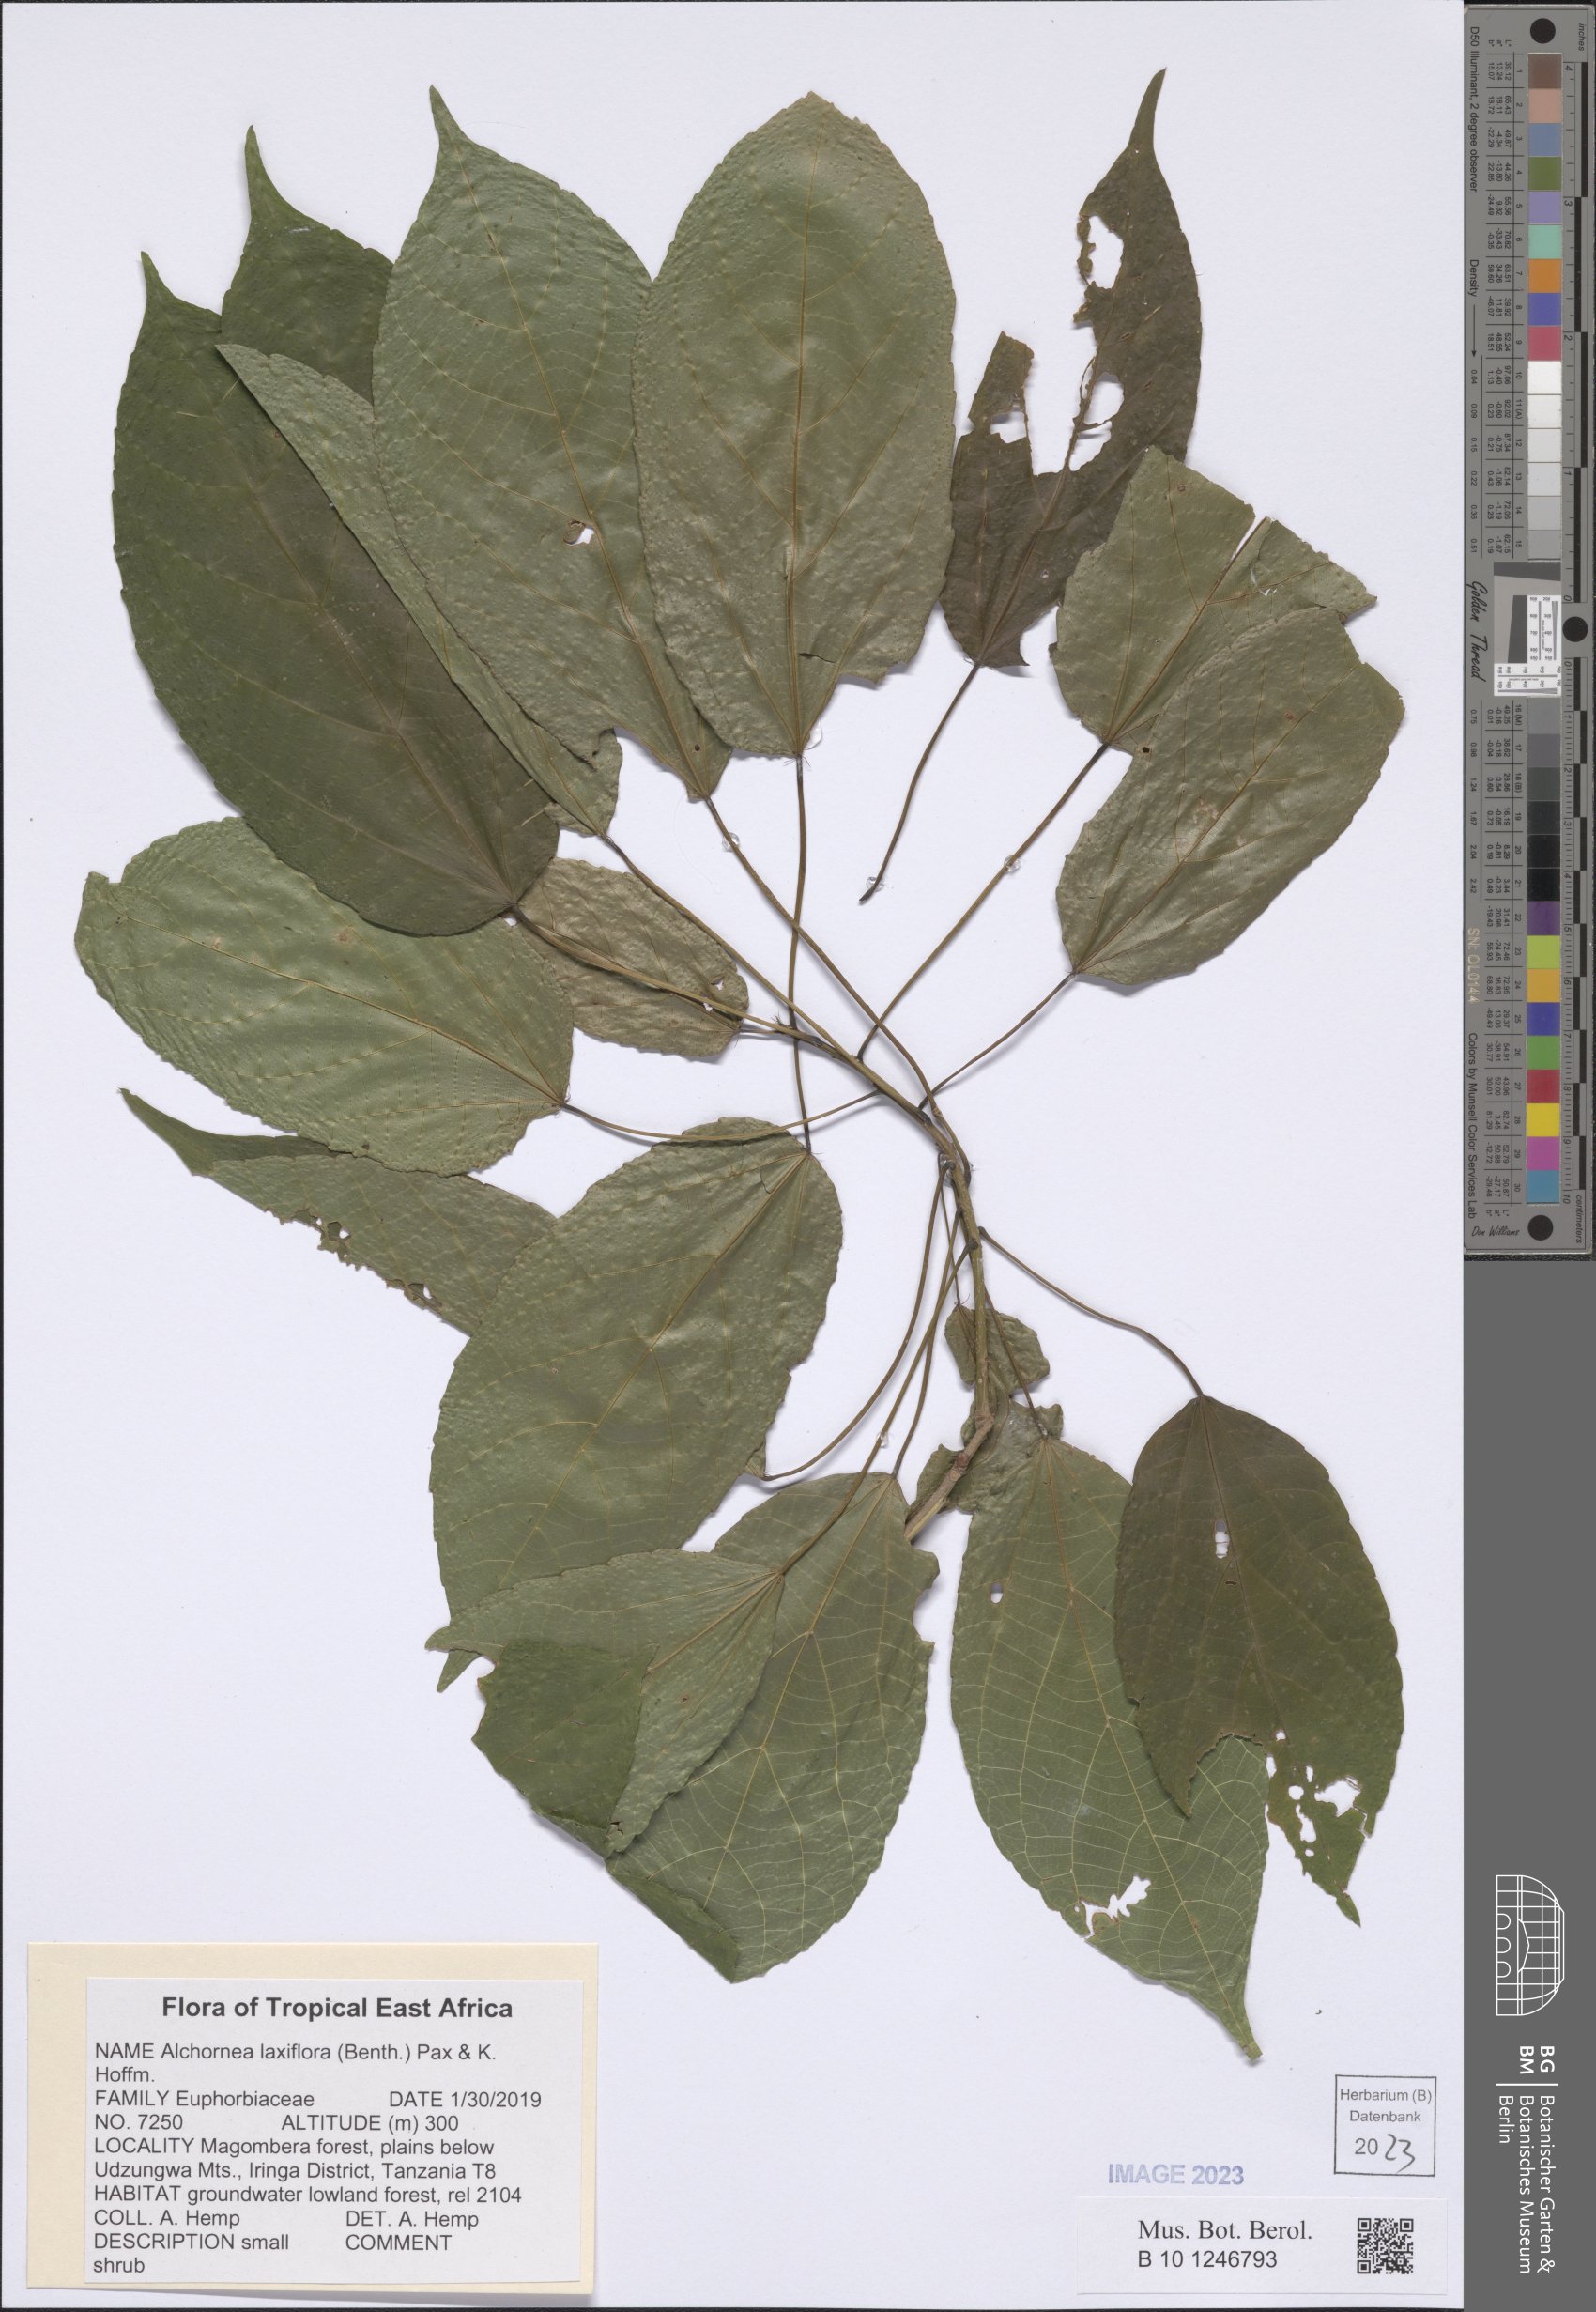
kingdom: Plantae
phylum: Tracheophyta
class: Magnoliopsida
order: Malpighiales
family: Euphorbiaceae
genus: Alchornea
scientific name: Alchornea laxiflora
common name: Lowveld bead-string
